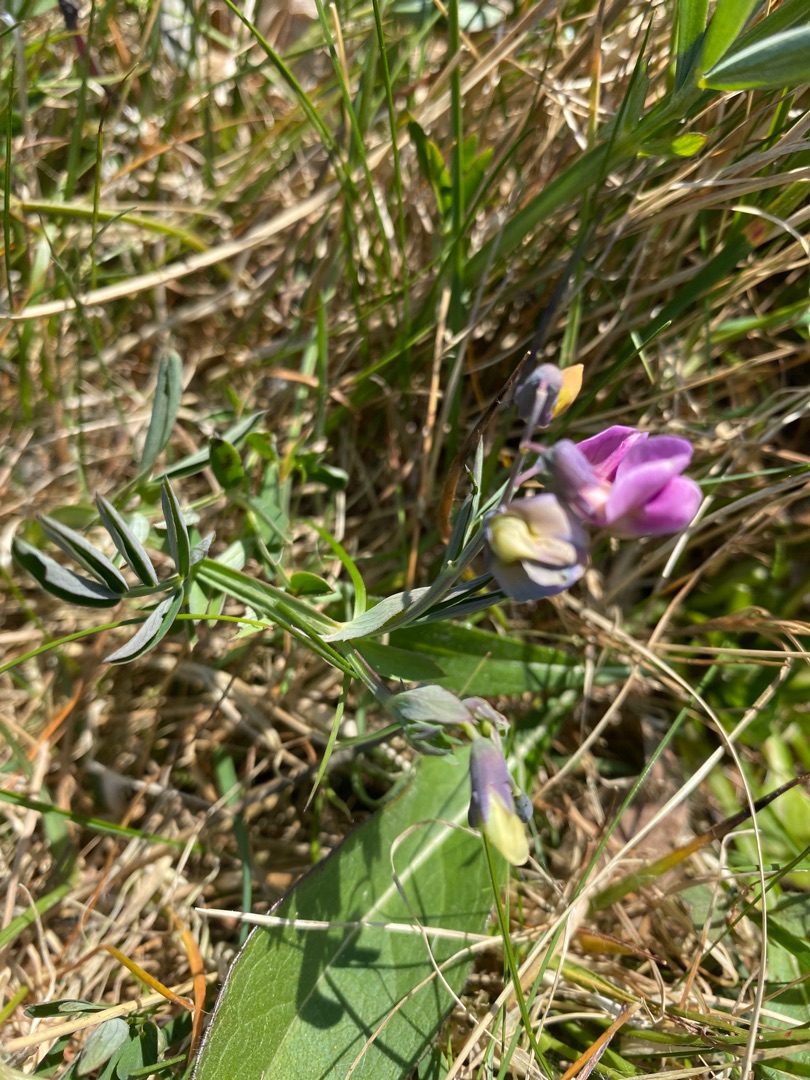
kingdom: Plantae
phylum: Tracheophyta
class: Magnoliopsida
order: Fabales
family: Fabaceae
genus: Lathyrus
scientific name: Lathyrus linifolius
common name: Krat-fladbælg
